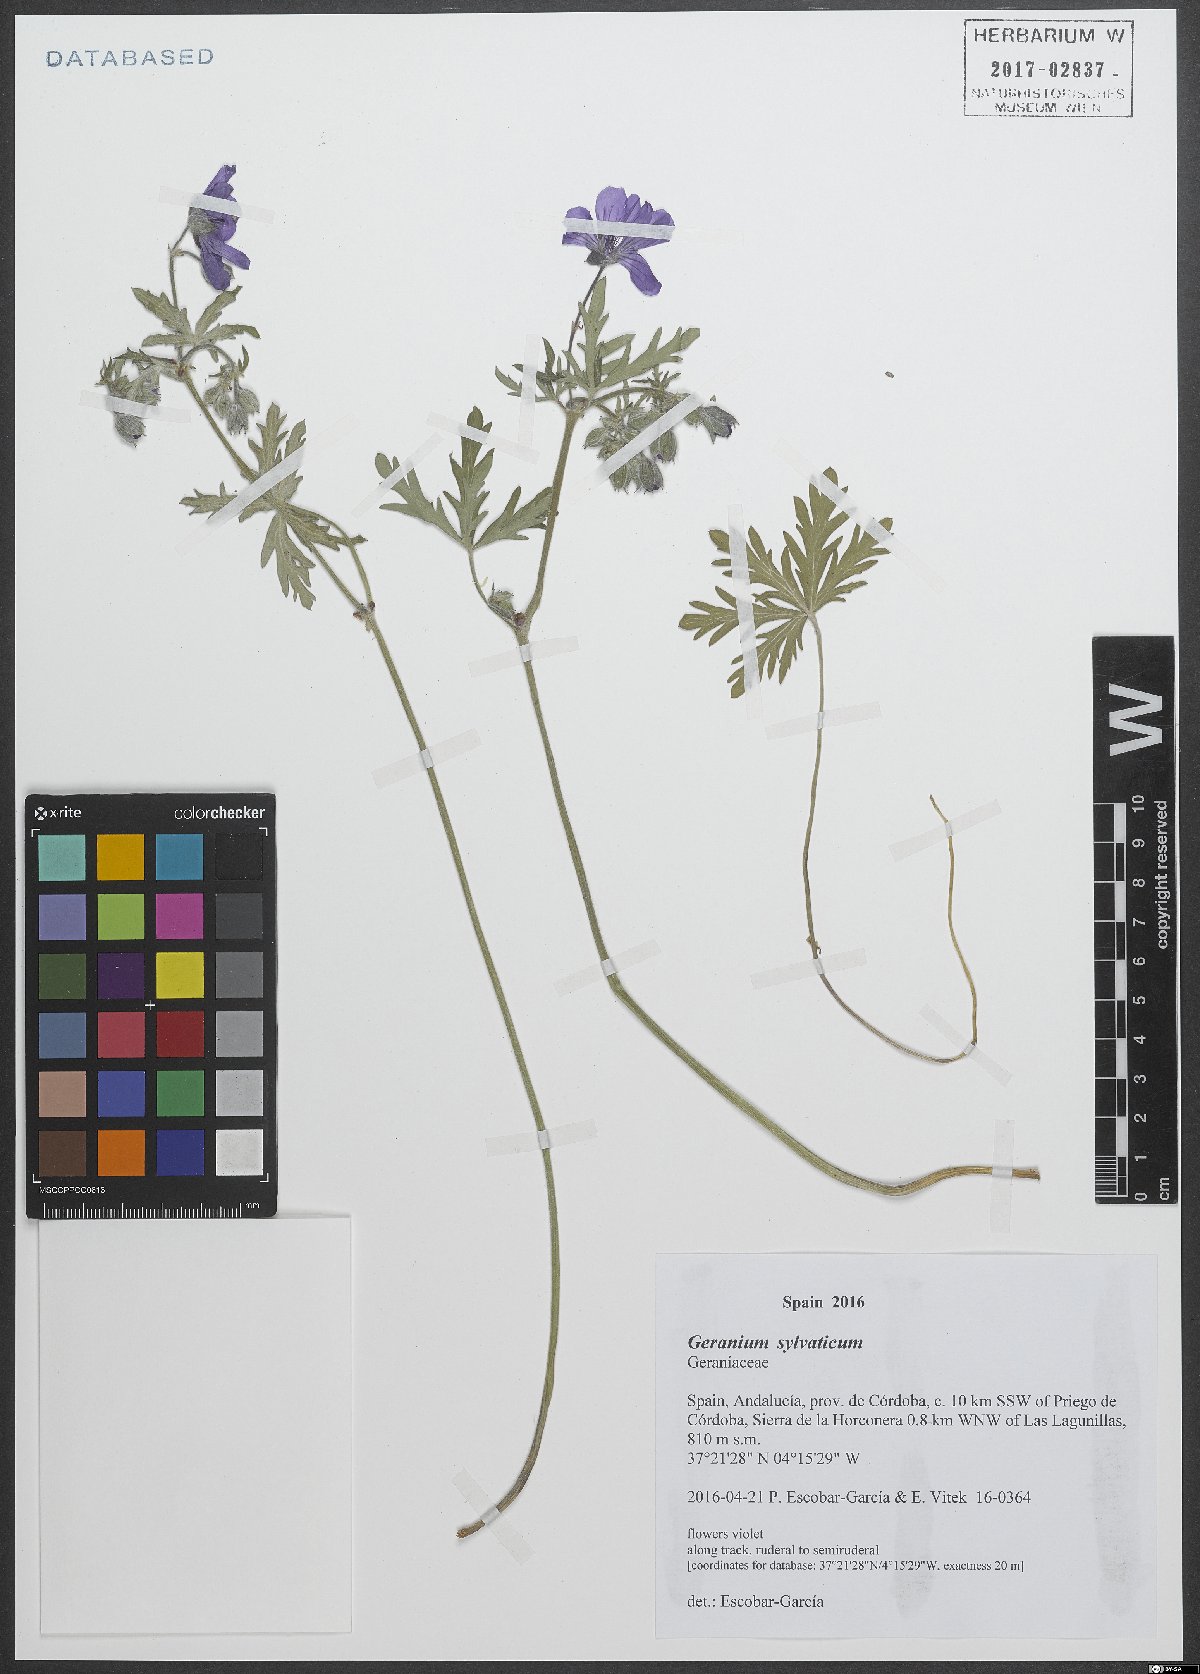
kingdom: Plantae
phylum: Tracheophyta
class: Magnoliopsida
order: Geraniales
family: Geraniaceae
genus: Geranium
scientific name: Geranium sylvaticum
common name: Wood crane's-bill
